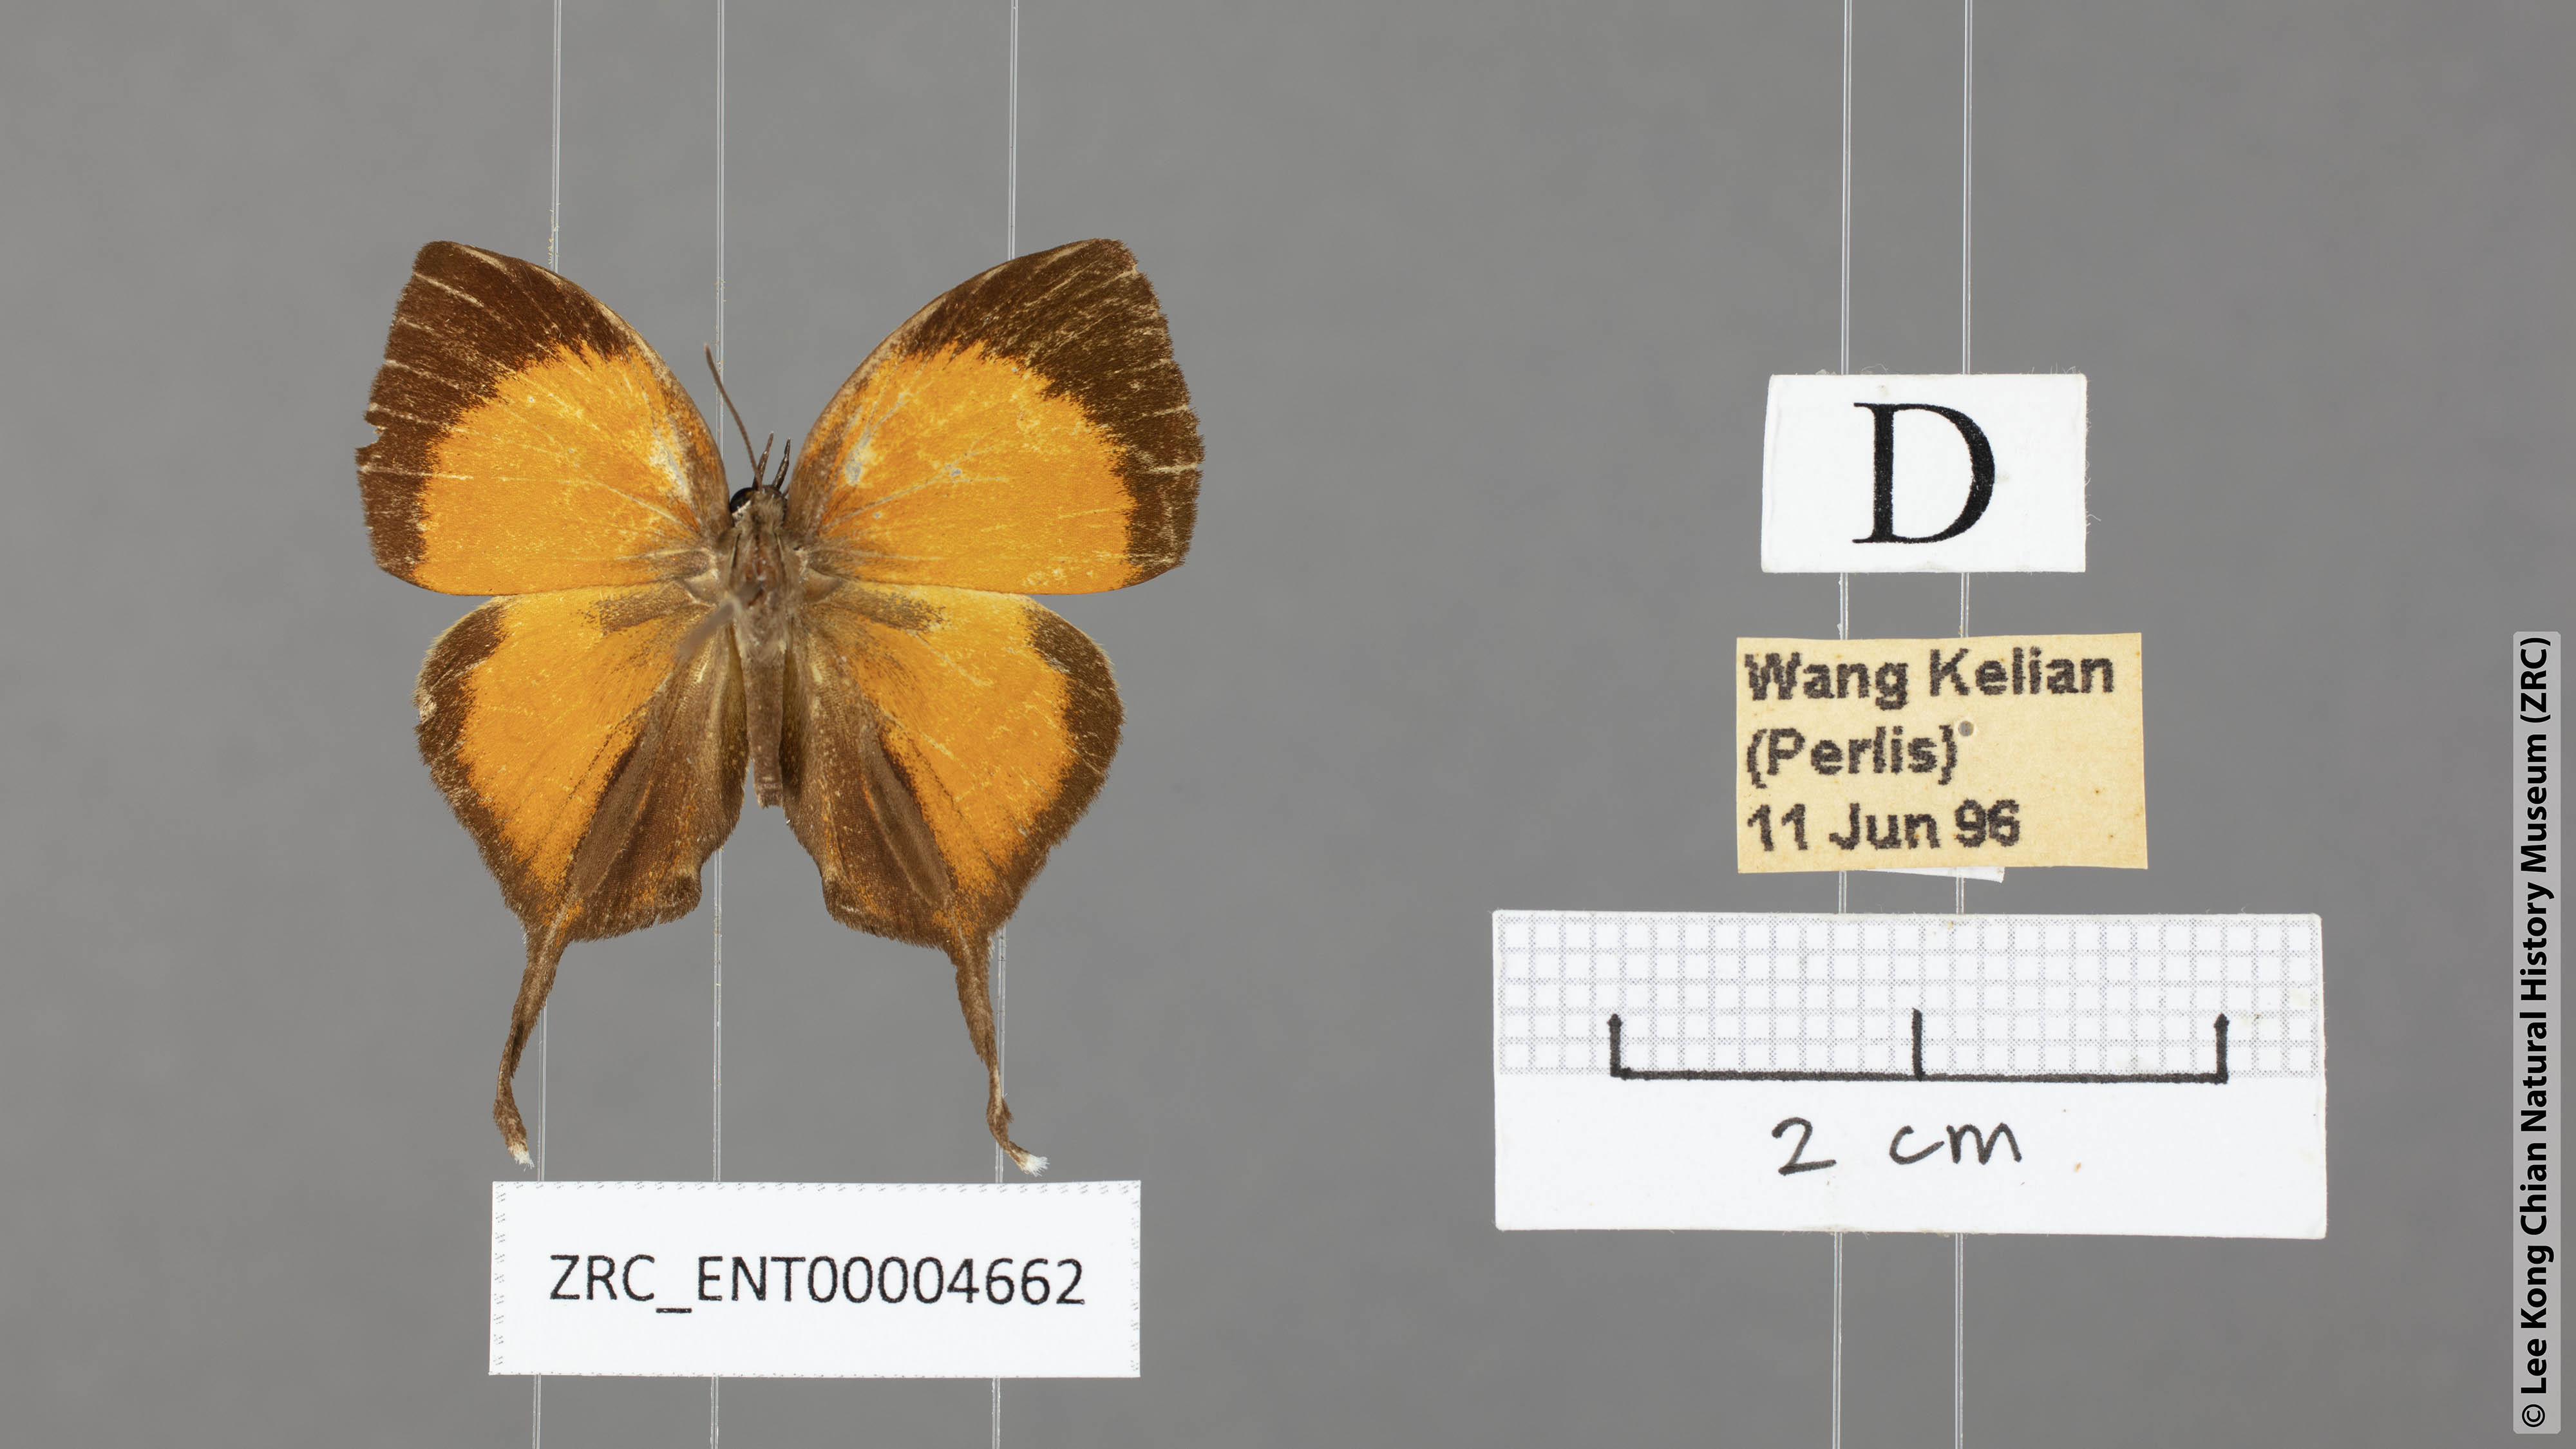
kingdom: Animalia
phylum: Arthropoda
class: Insecta
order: Lepidoptera
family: Lycaenidae
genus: Yasoda
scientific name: Yasoda pita
